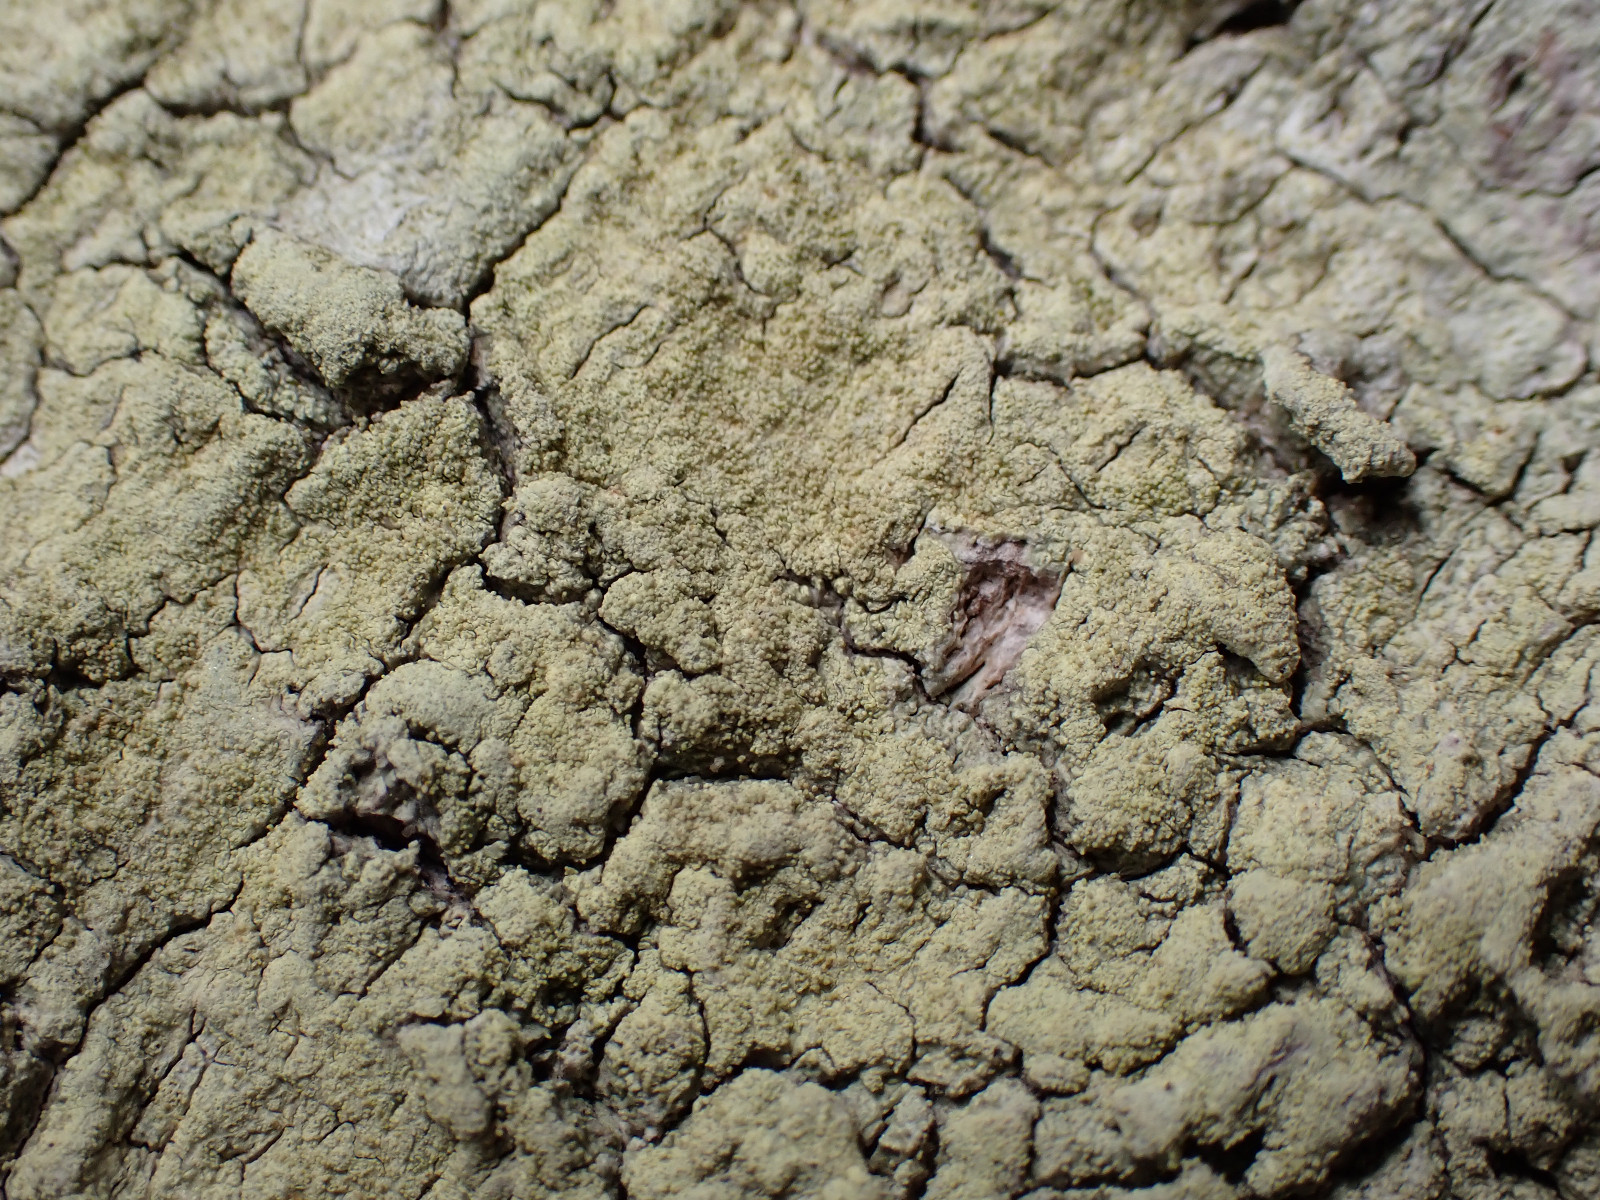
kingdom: Fungi
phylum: Ascomycota
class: Lecanoromycetes
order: Pertusariales
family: Pertusariaceae
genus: Pertusaria
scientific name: Pertusaria flavida
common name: gul prikvortelav
